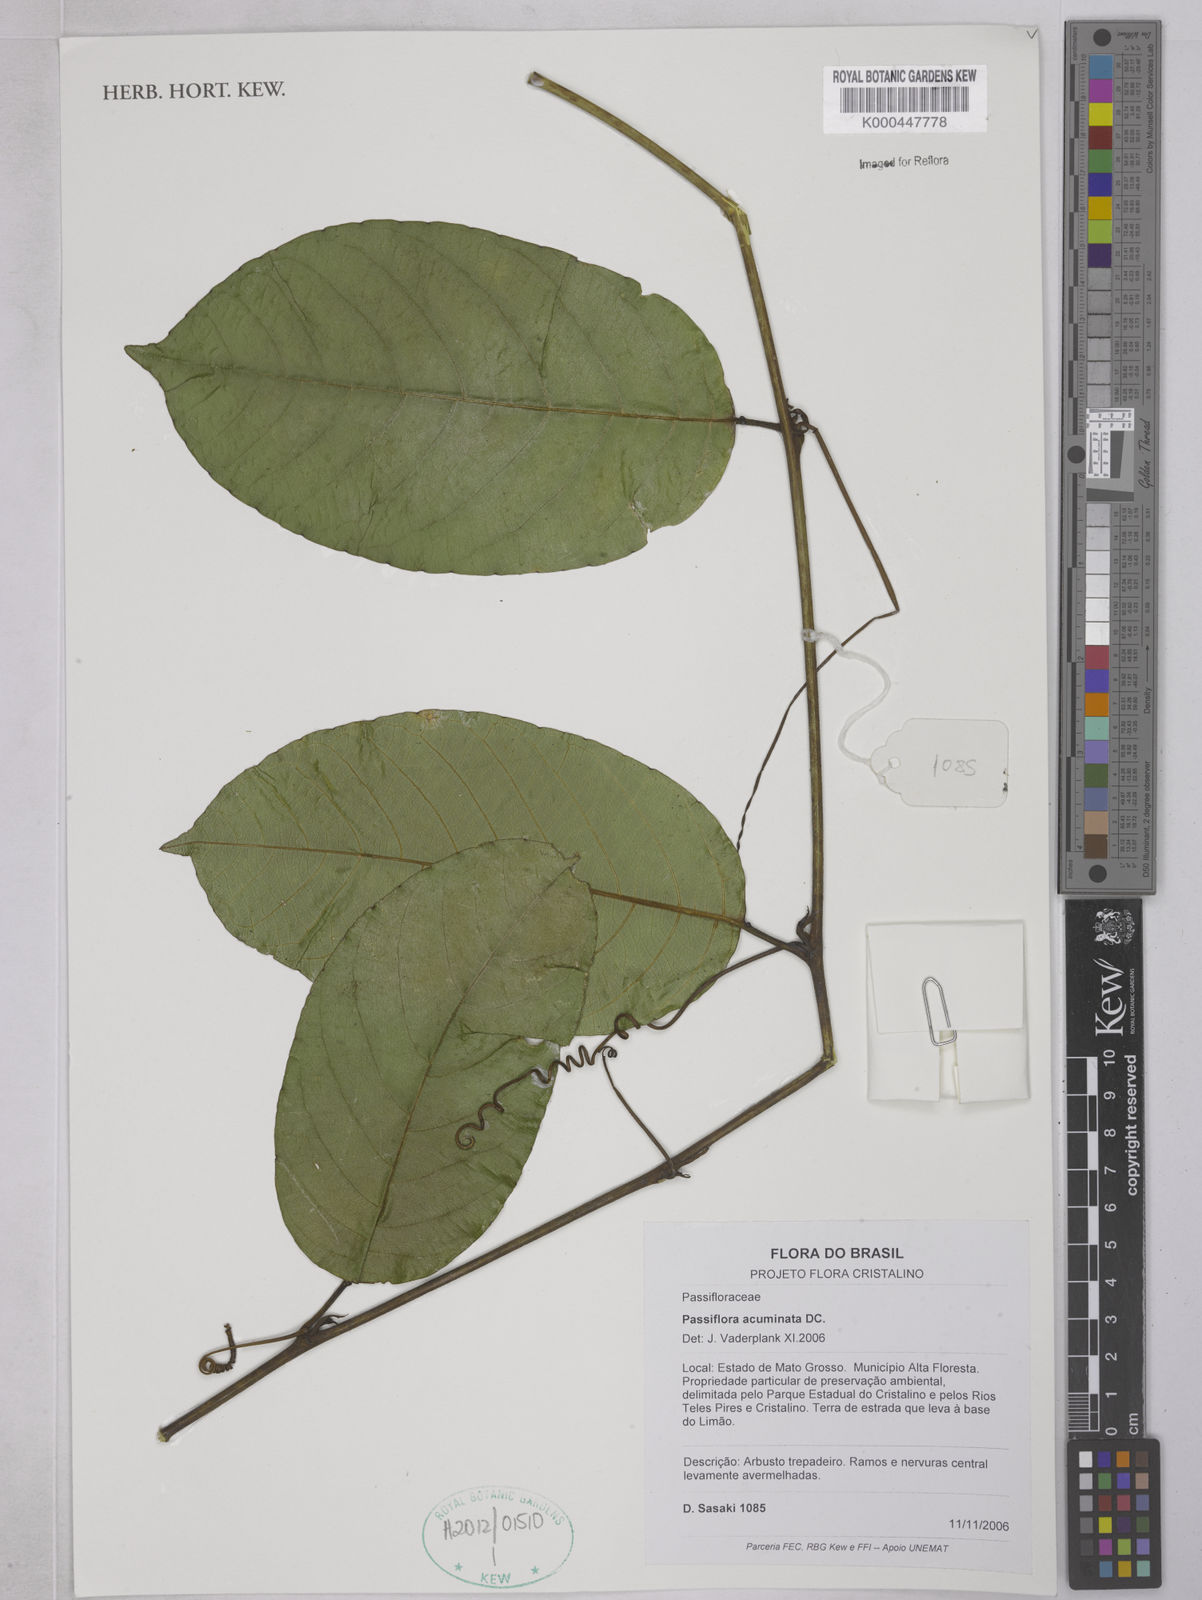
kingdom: Plantae
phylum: Tracheophyta
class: Magnoliopsida
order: Malpighiales
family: Passifloraceae
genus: Passiflora
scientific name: Passiflora acuminata
